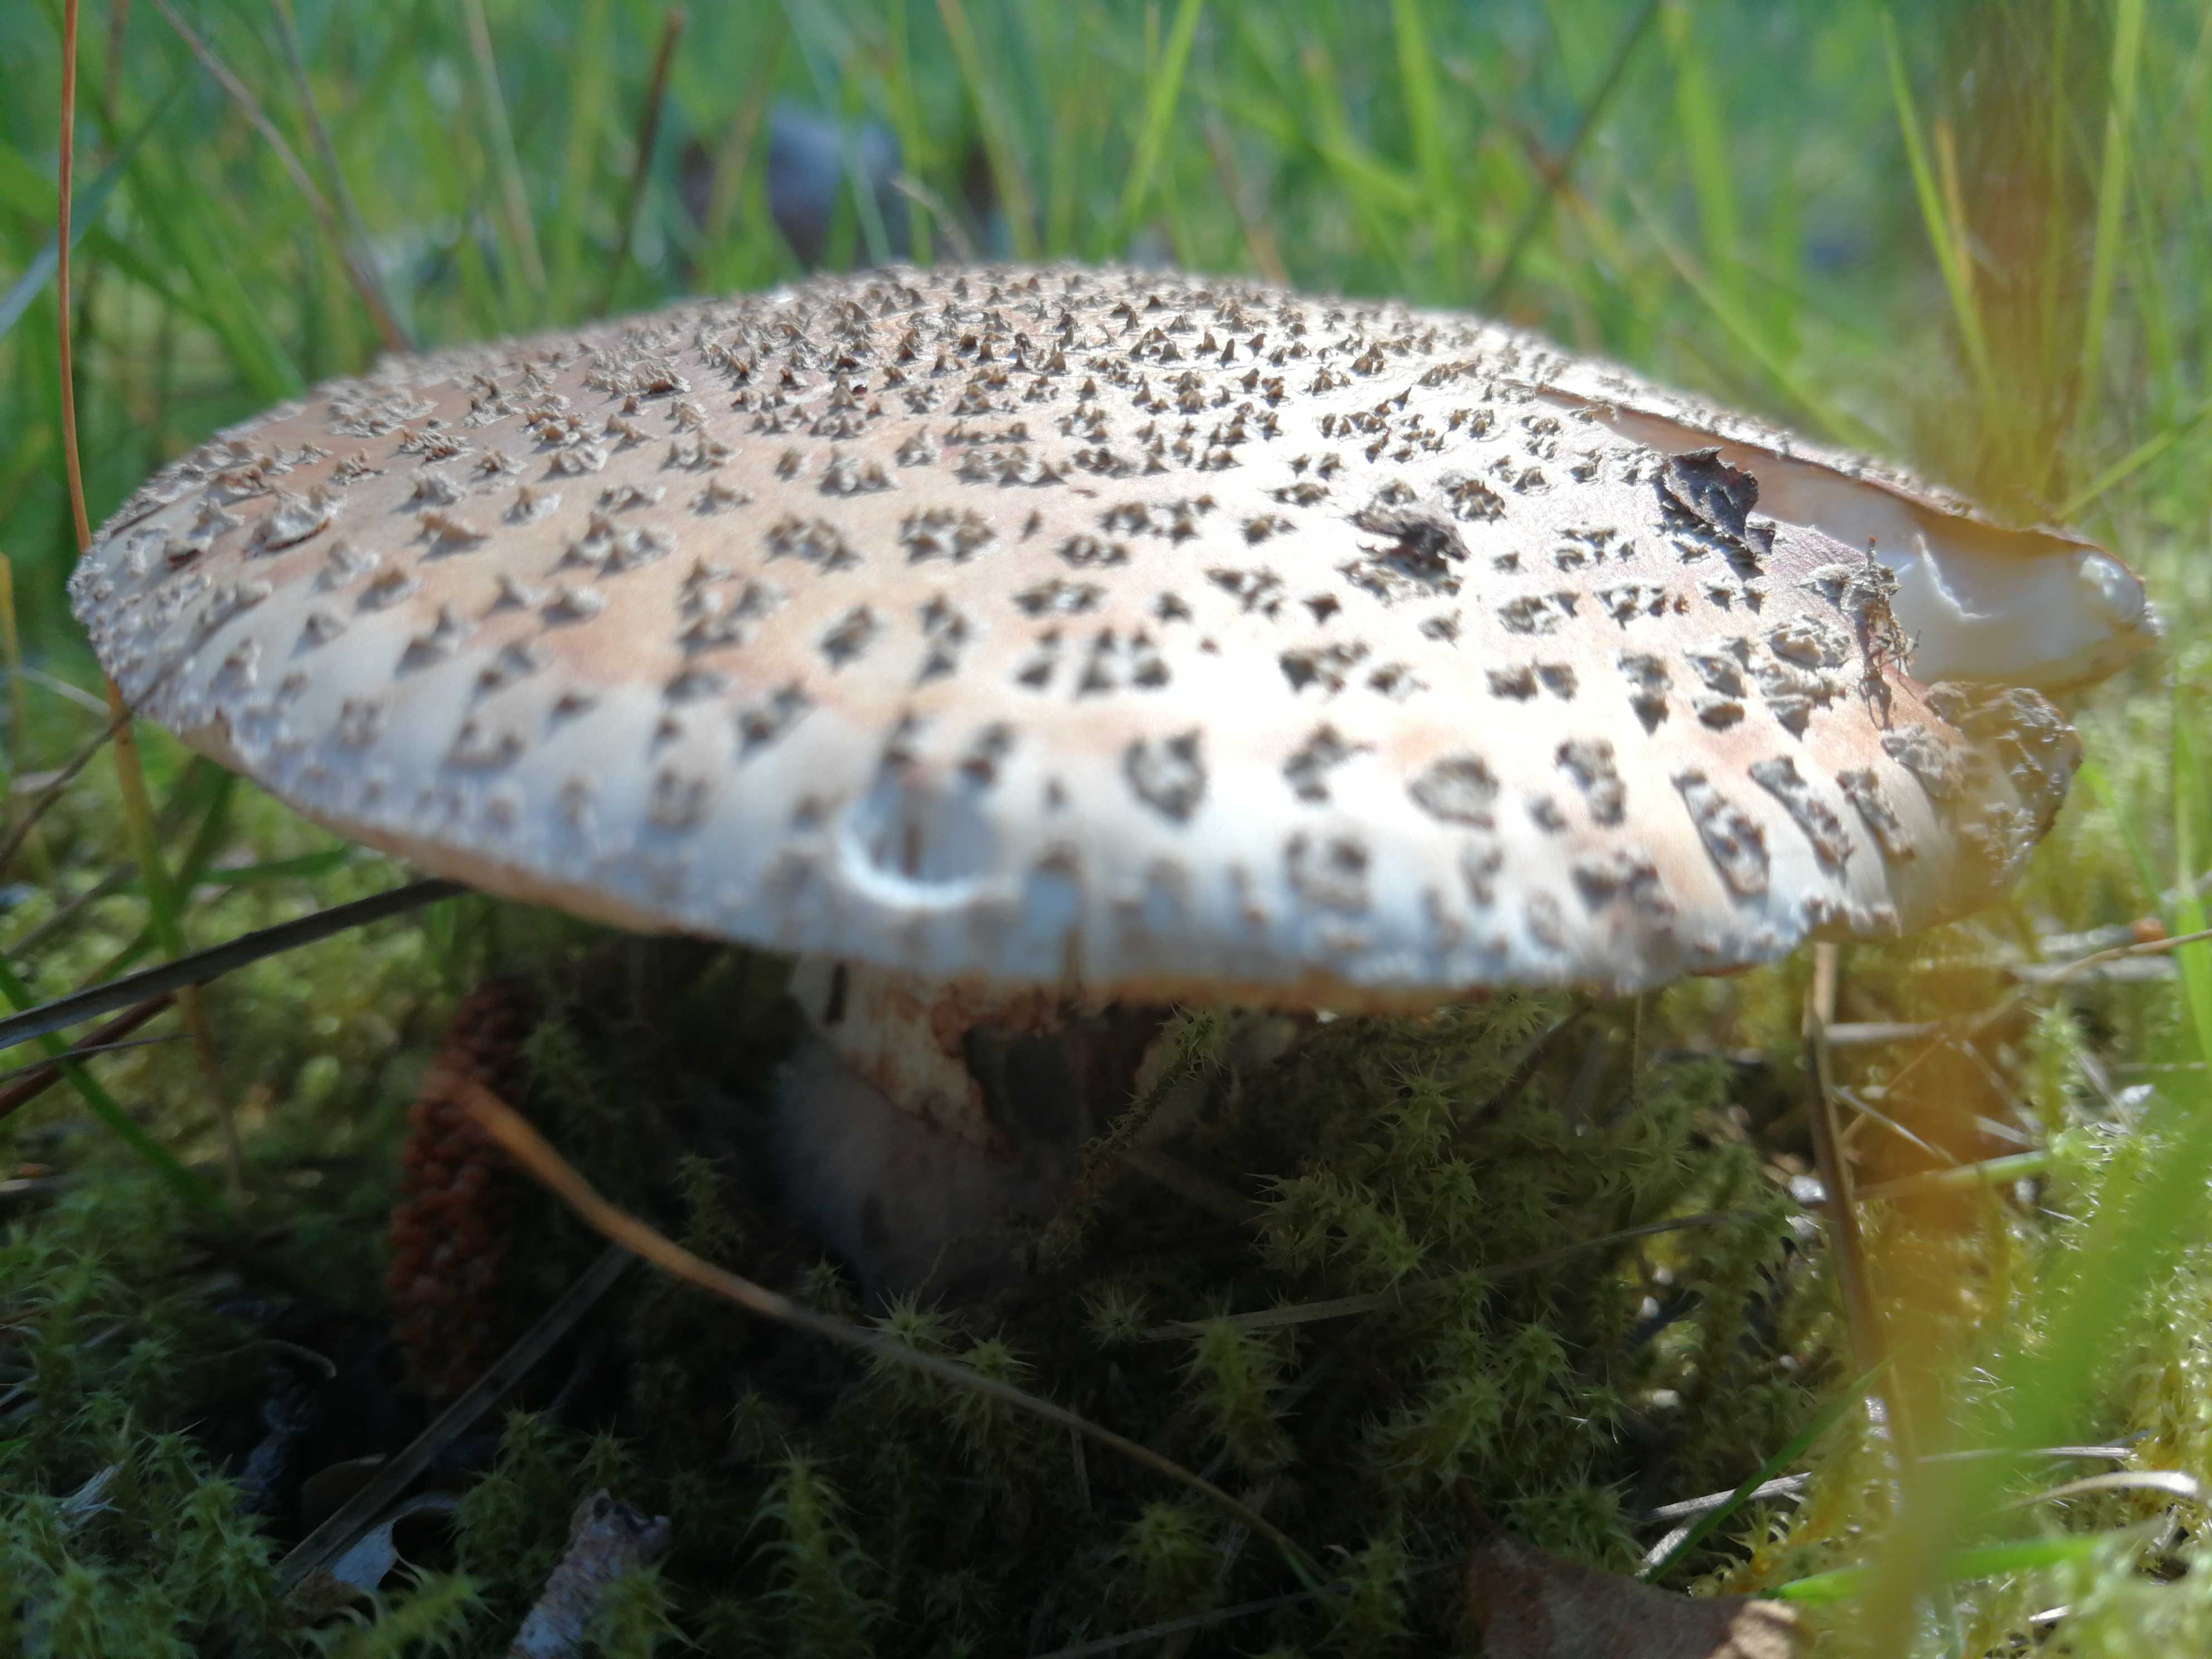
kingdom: Fungi
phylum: Basidiomycota
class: Agaricomycetes
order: Agaricales
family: Amanitaceae
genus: Amanita
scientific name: Amanita rubescens
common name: rødmende fluesvamp
